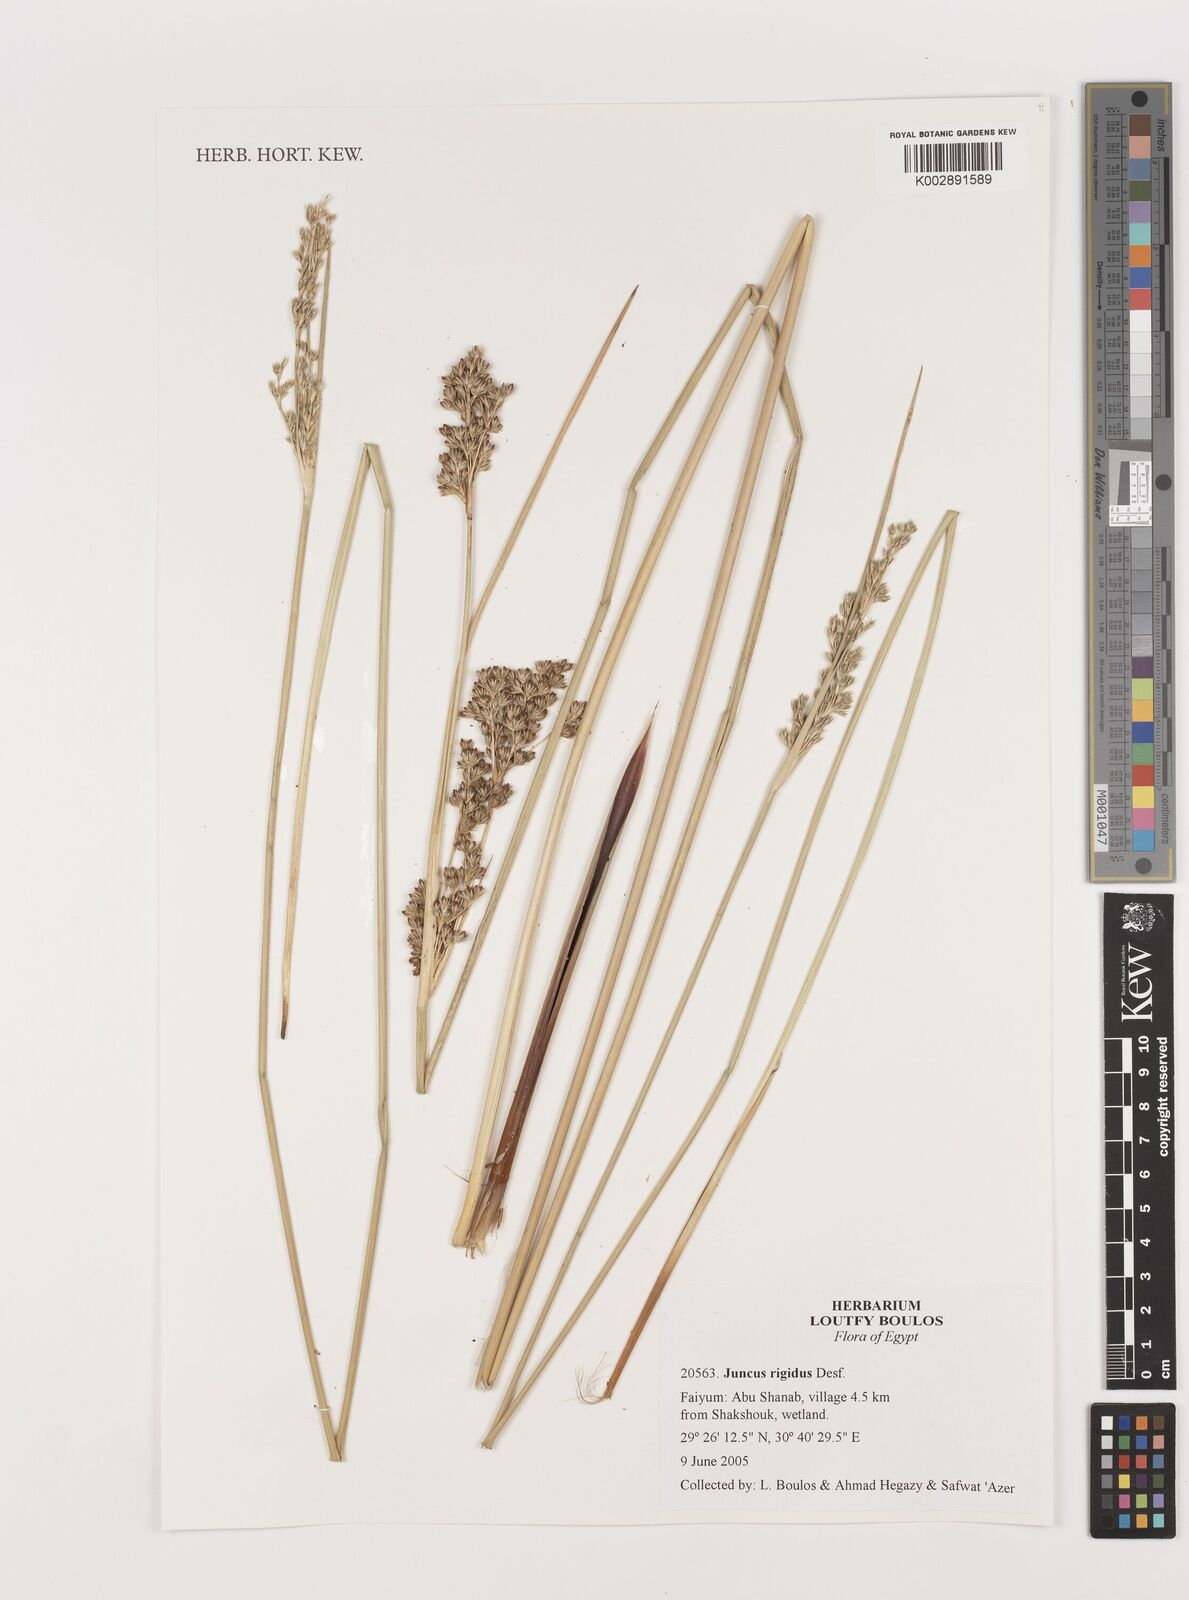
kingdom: Plantae
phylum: Tracheophyta
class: Liliopsida
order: Poales
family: Juncaceae
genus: Juncus
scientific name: Juncus rigidus
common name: Hard sea rush
